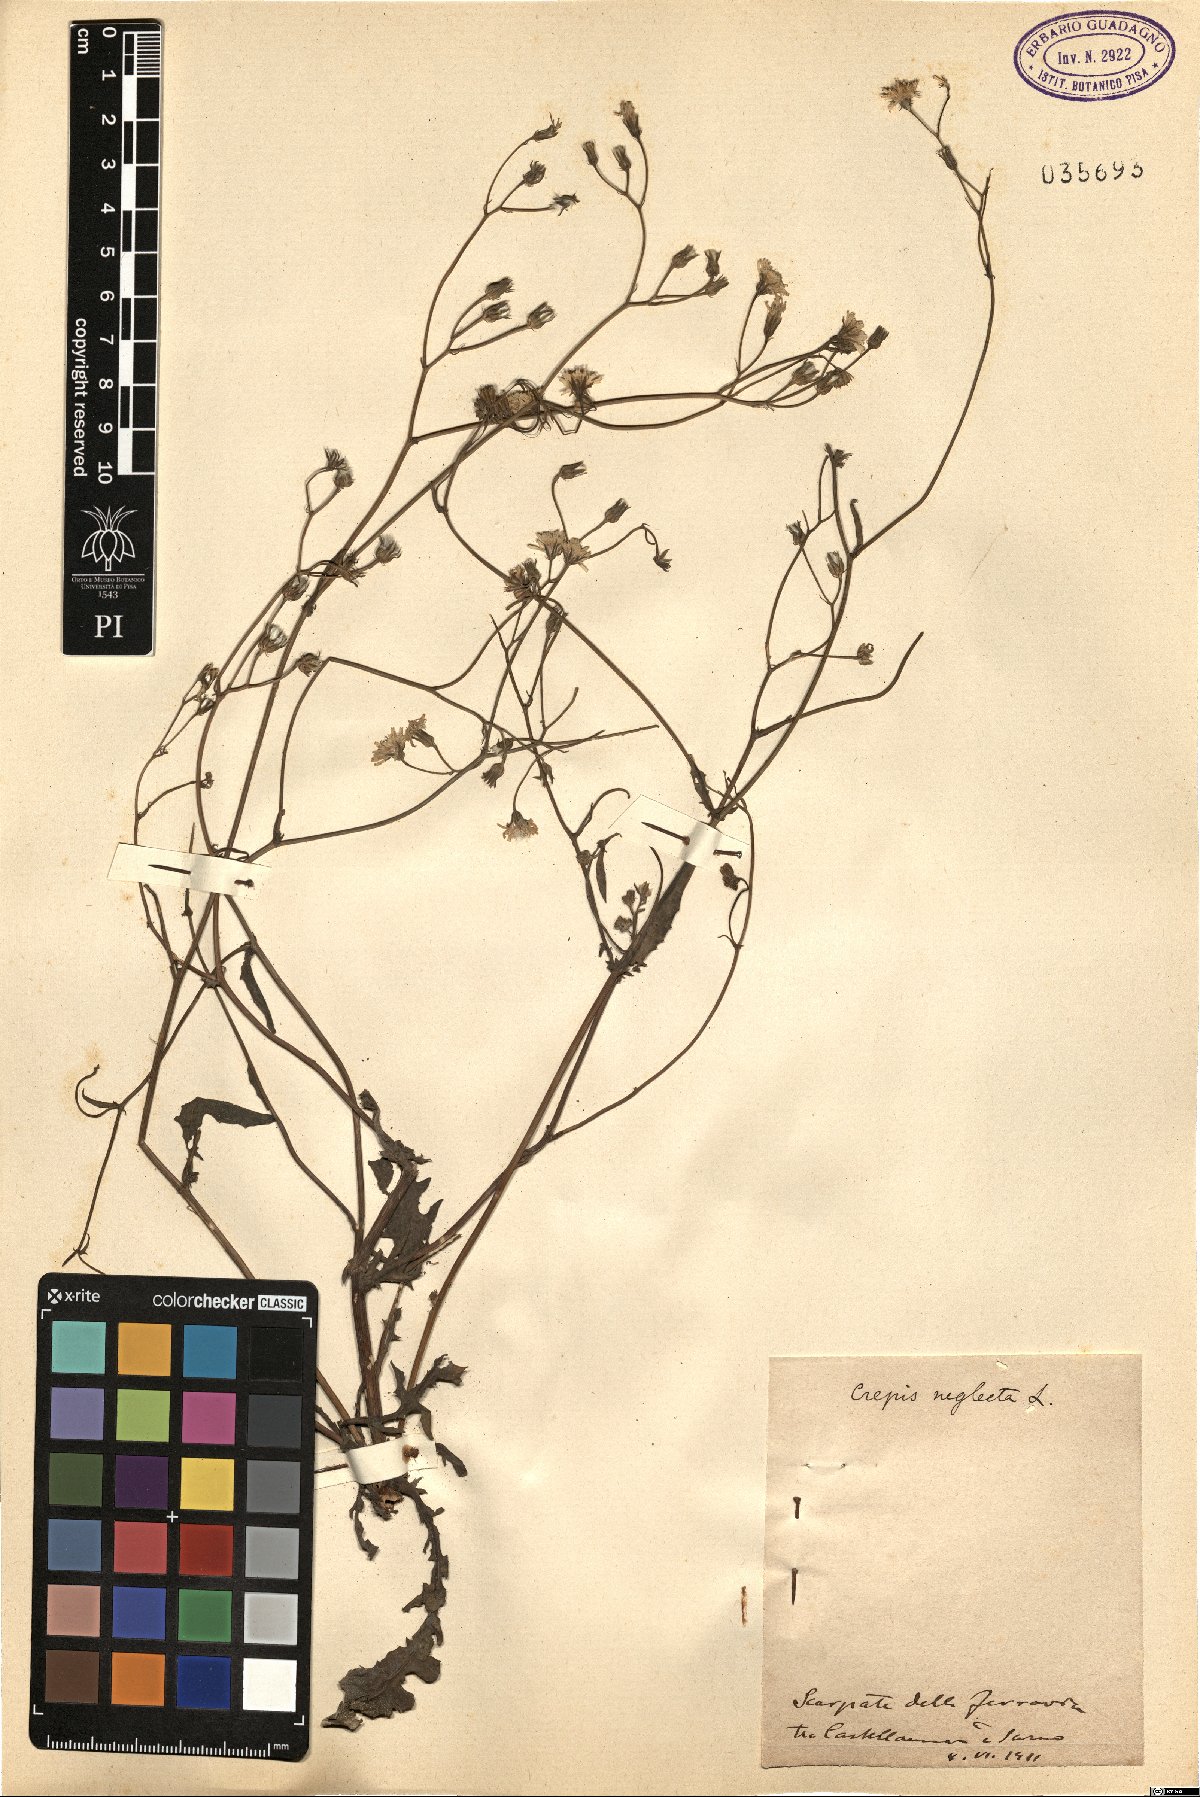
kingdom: Plantae
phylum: Tracheophyta
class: Magnoliopsida
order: Asterales
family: Asteraceae
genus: Crepis
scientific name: Crepis neglecta
